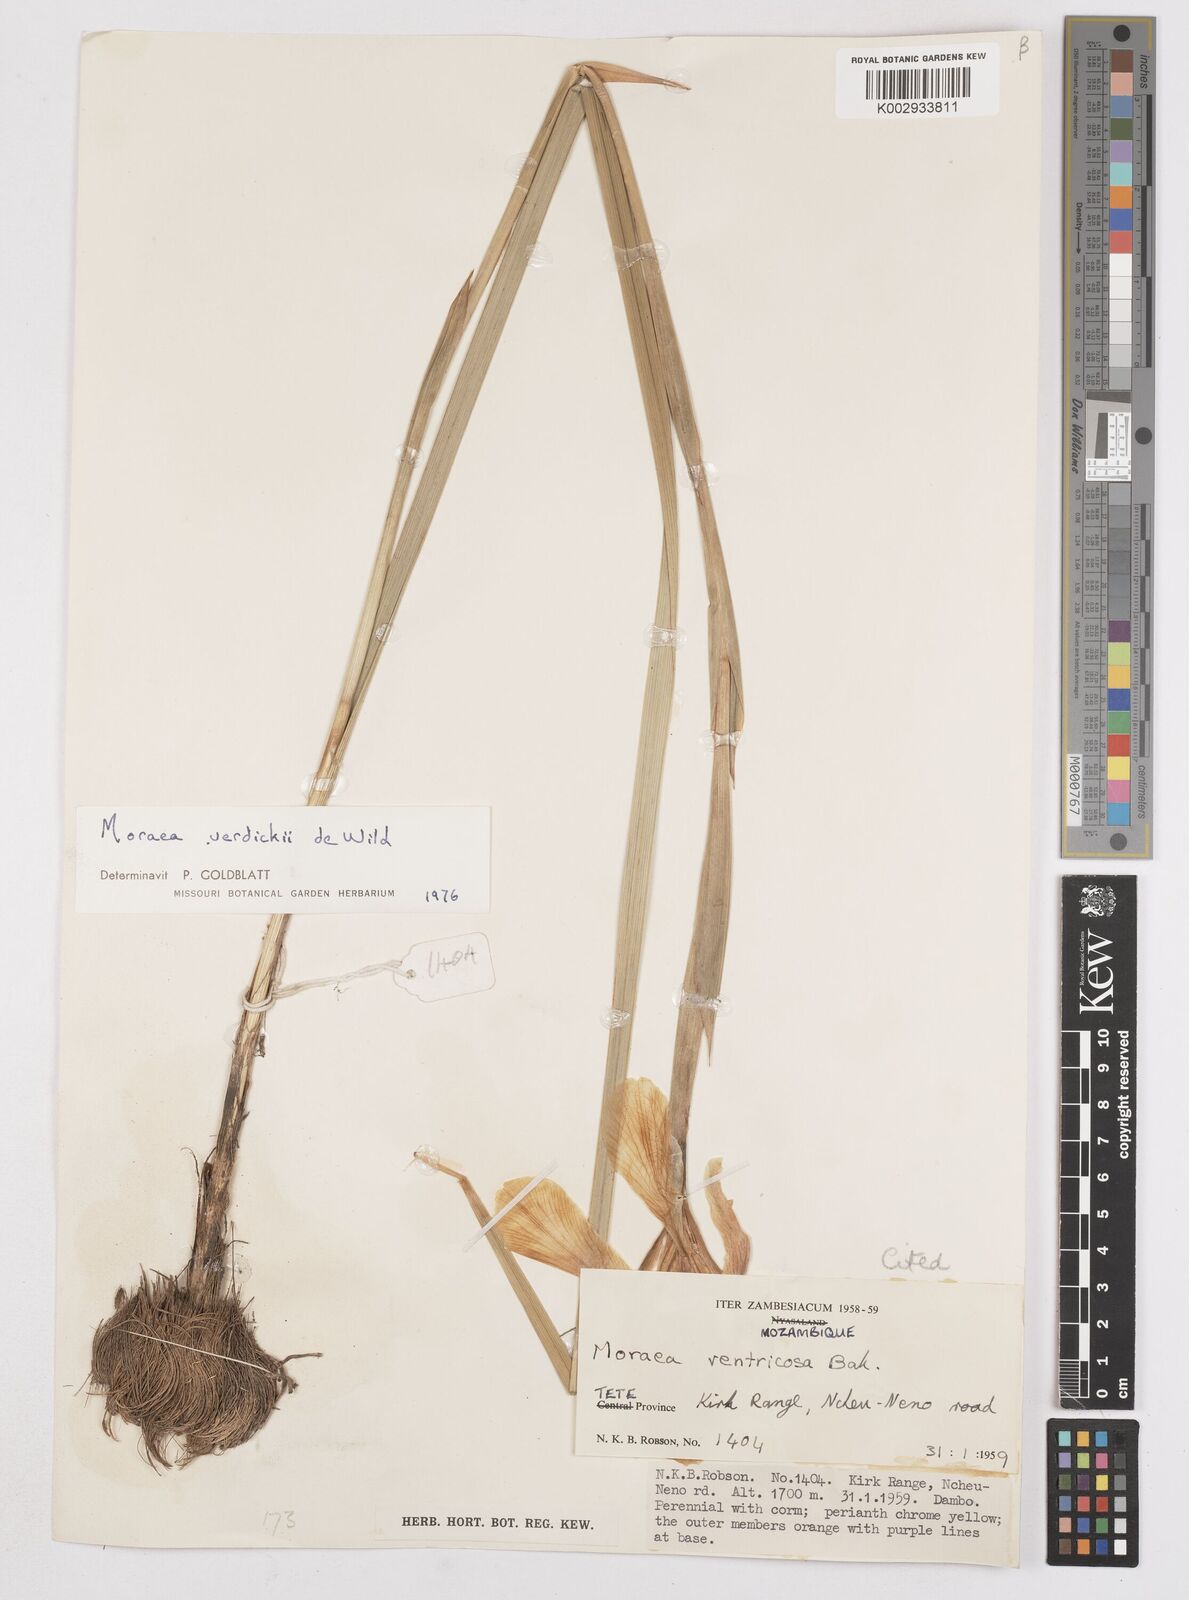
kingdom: Plantae
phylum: Tracheophyta
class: Liliopsida
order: Asparagales
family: Iridaceae
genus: Moraea
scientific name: Moraea verdickii
